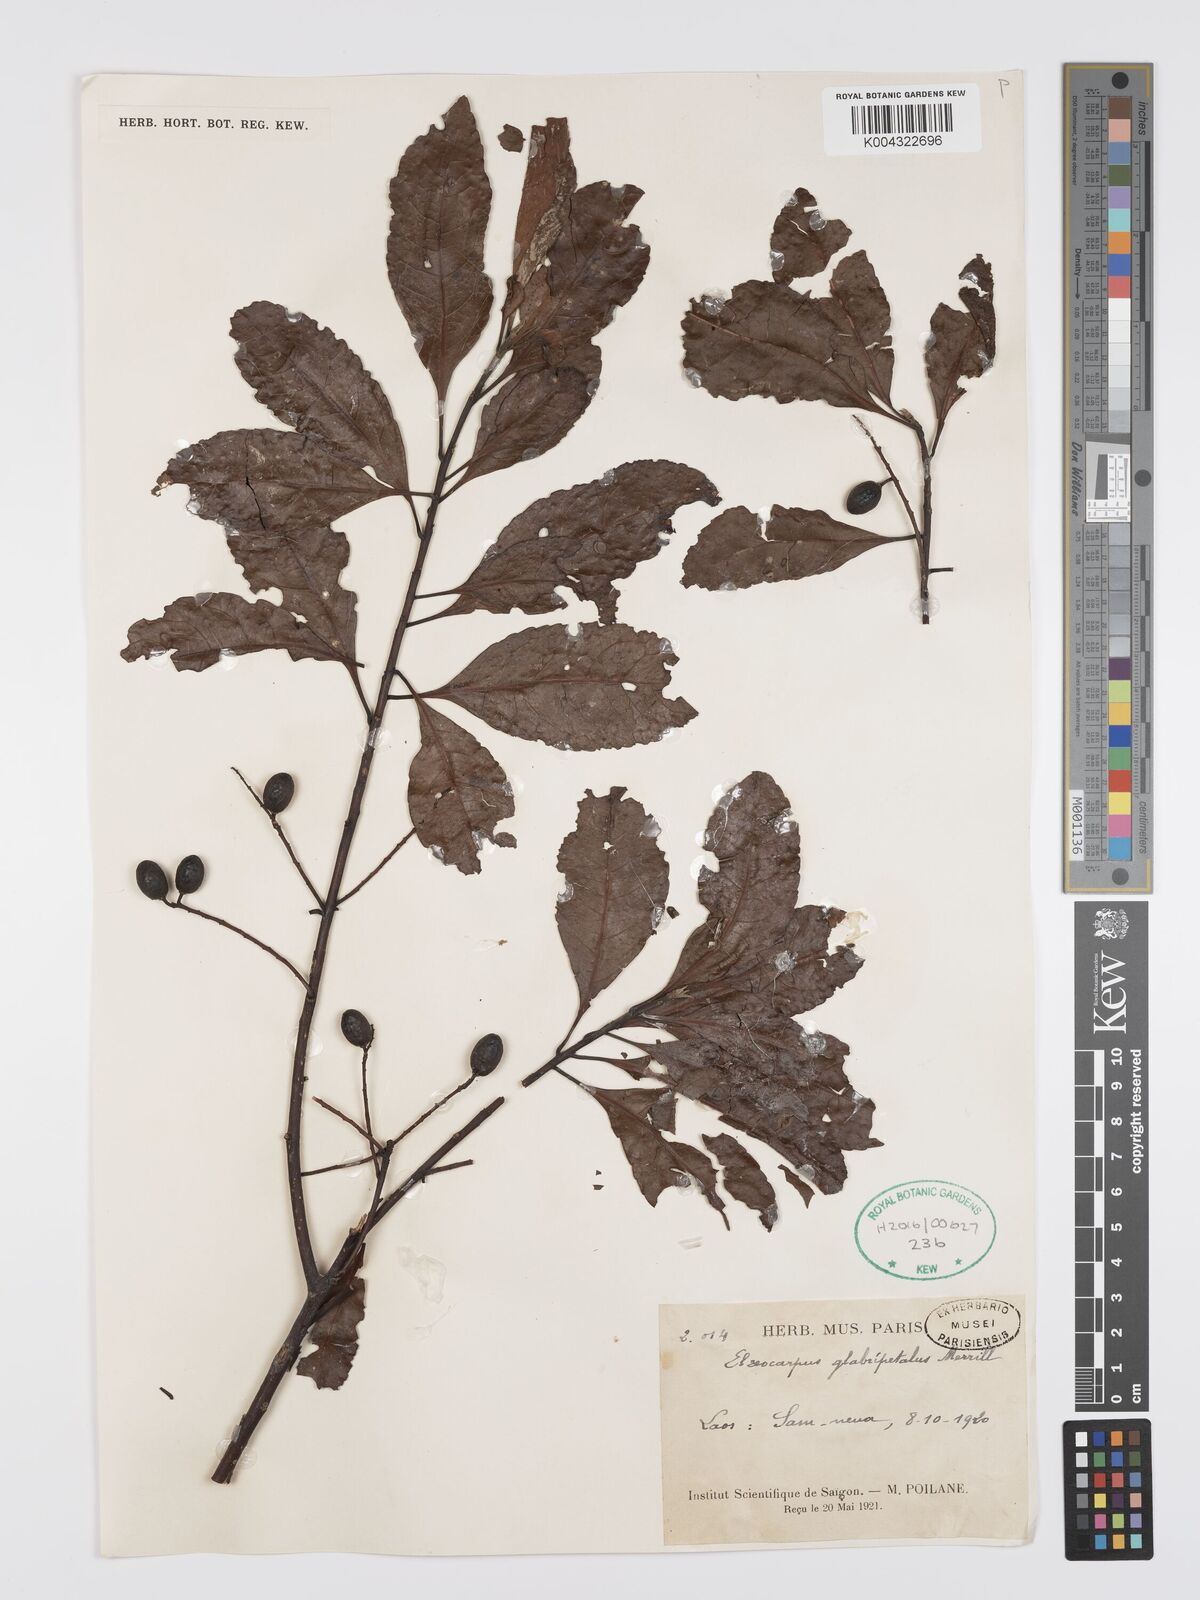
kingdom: Plantae
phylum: Tracheophyta
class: Magnoliopsida
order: Oxalidales
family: Elaeocarpaceae
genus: Elaeocarpus
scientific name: Elaeocarpus glabripetalus
